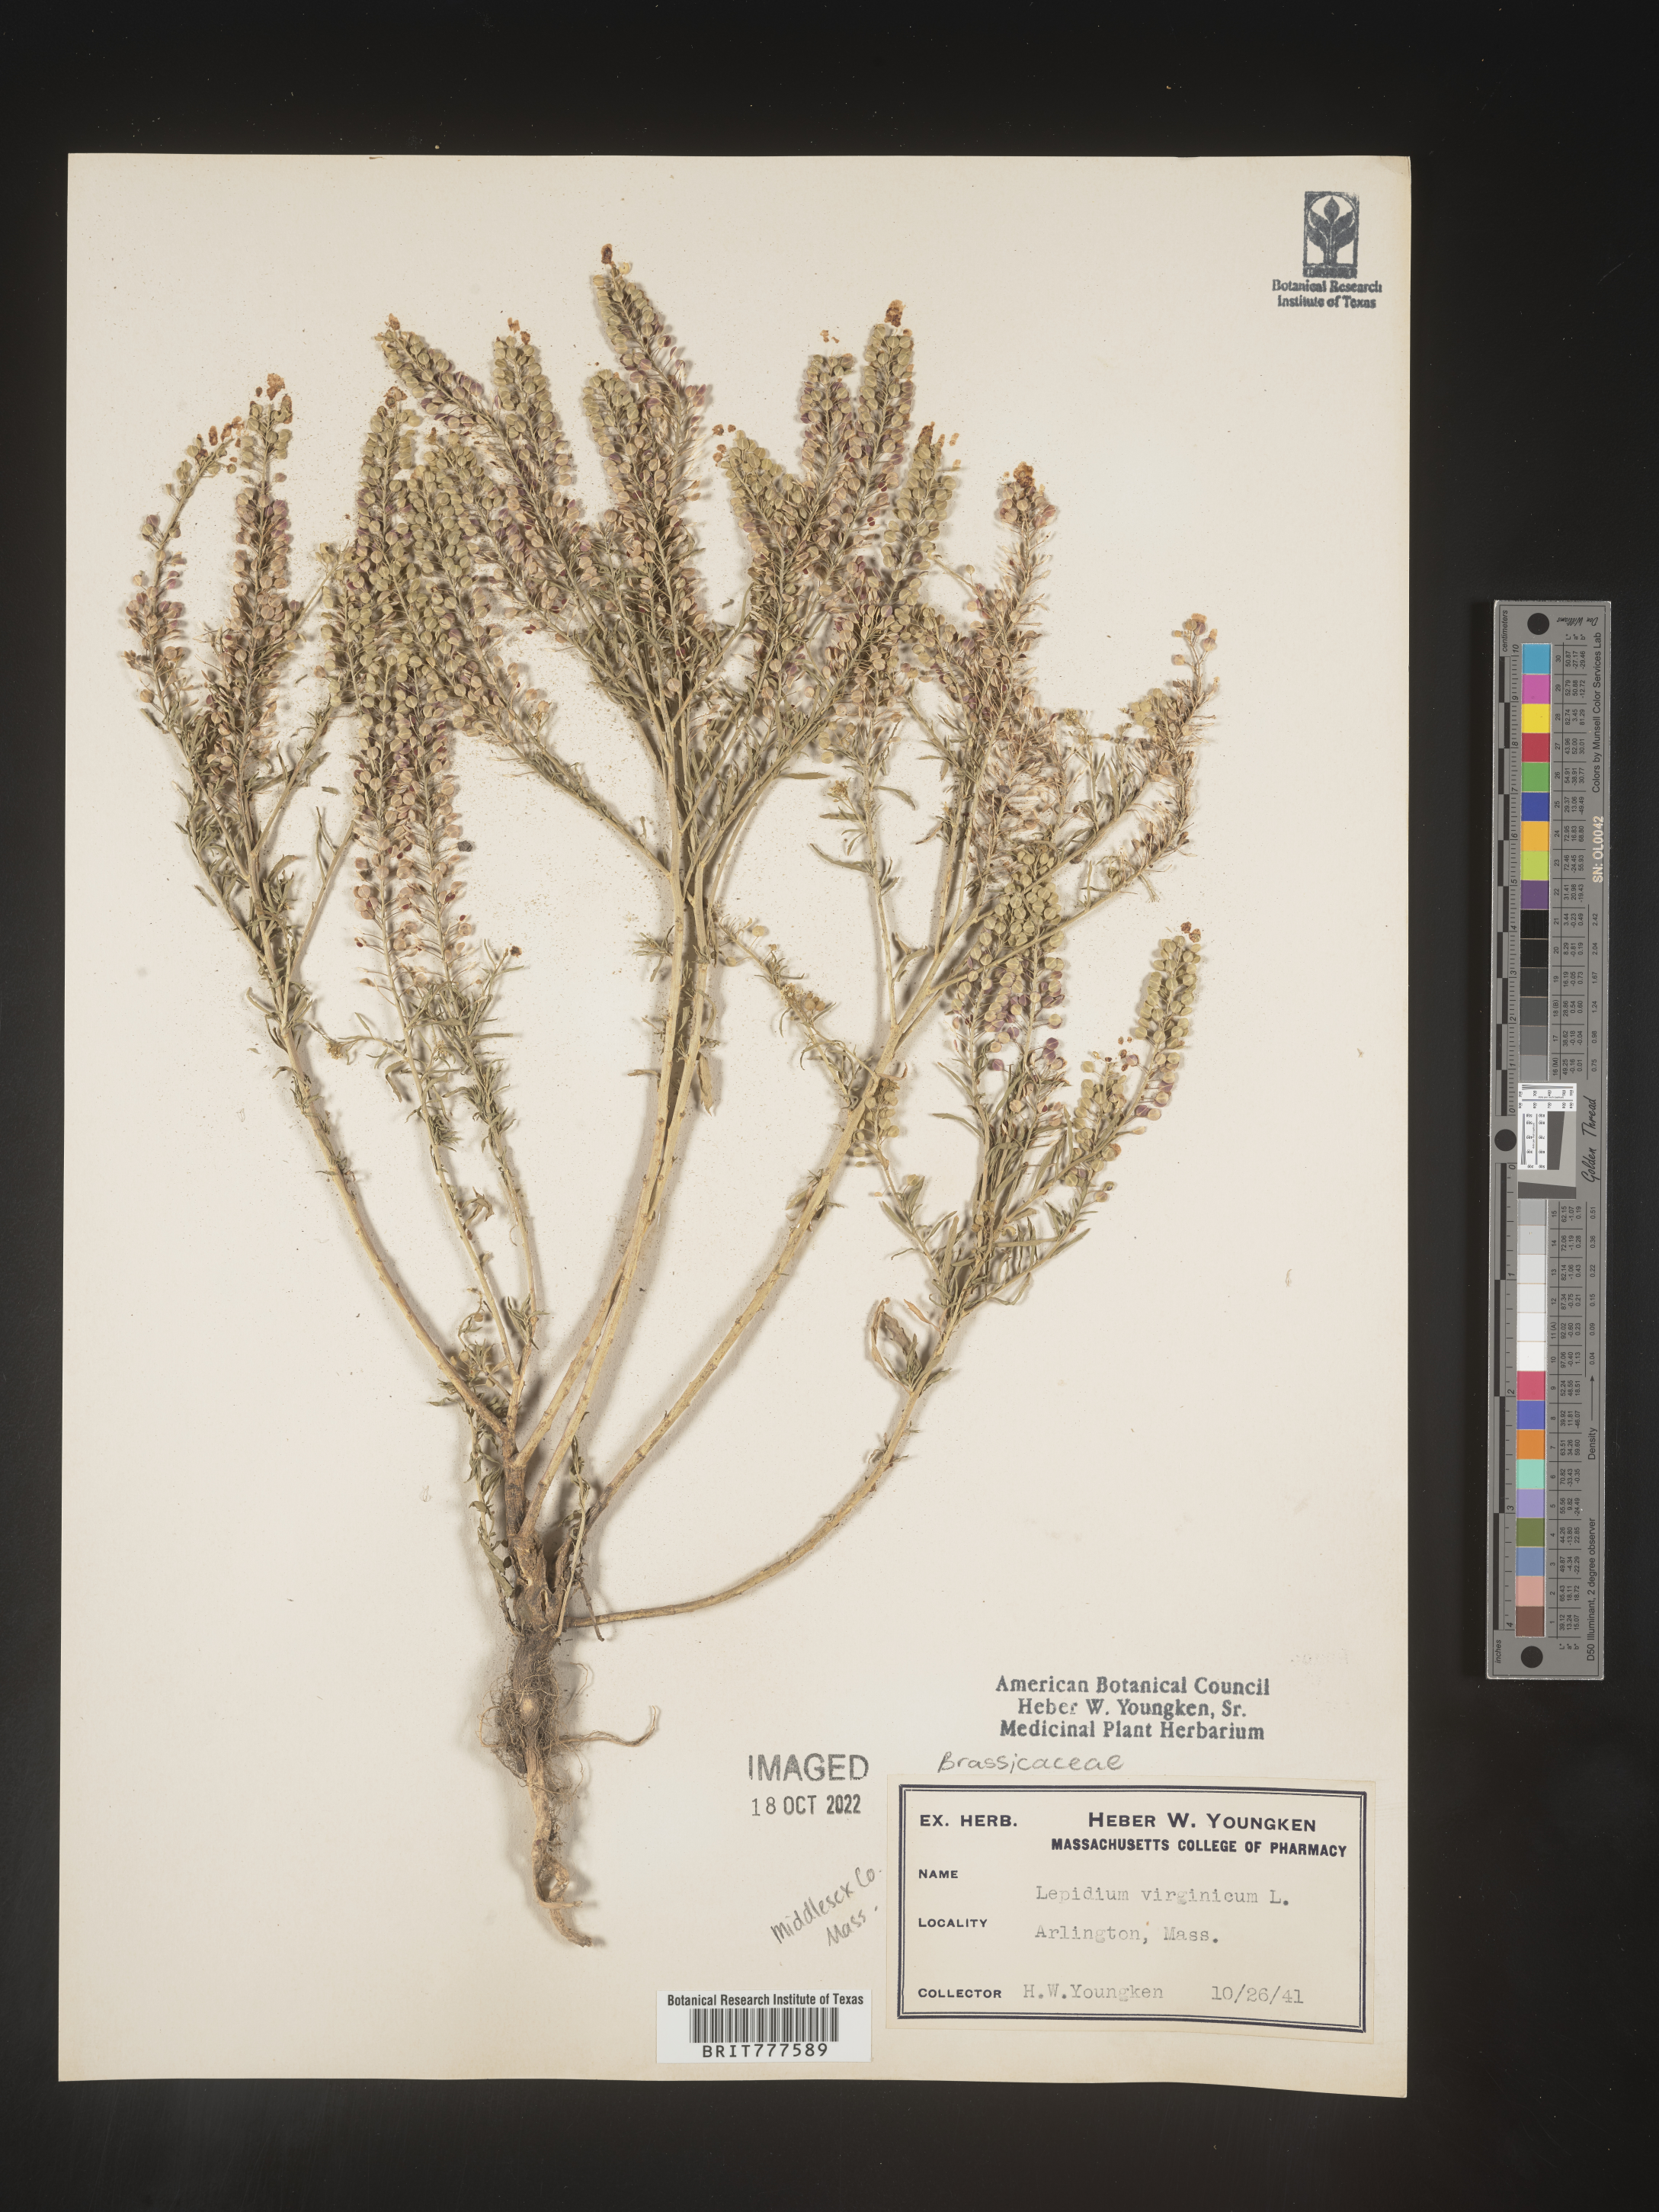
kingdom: Plantae
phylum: Tracheophyta
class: Magnoliopsida
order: Brassicales
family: Brassicaceae
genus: Lepidium
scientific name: Lepidium virginicum
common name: Least pepperwort
